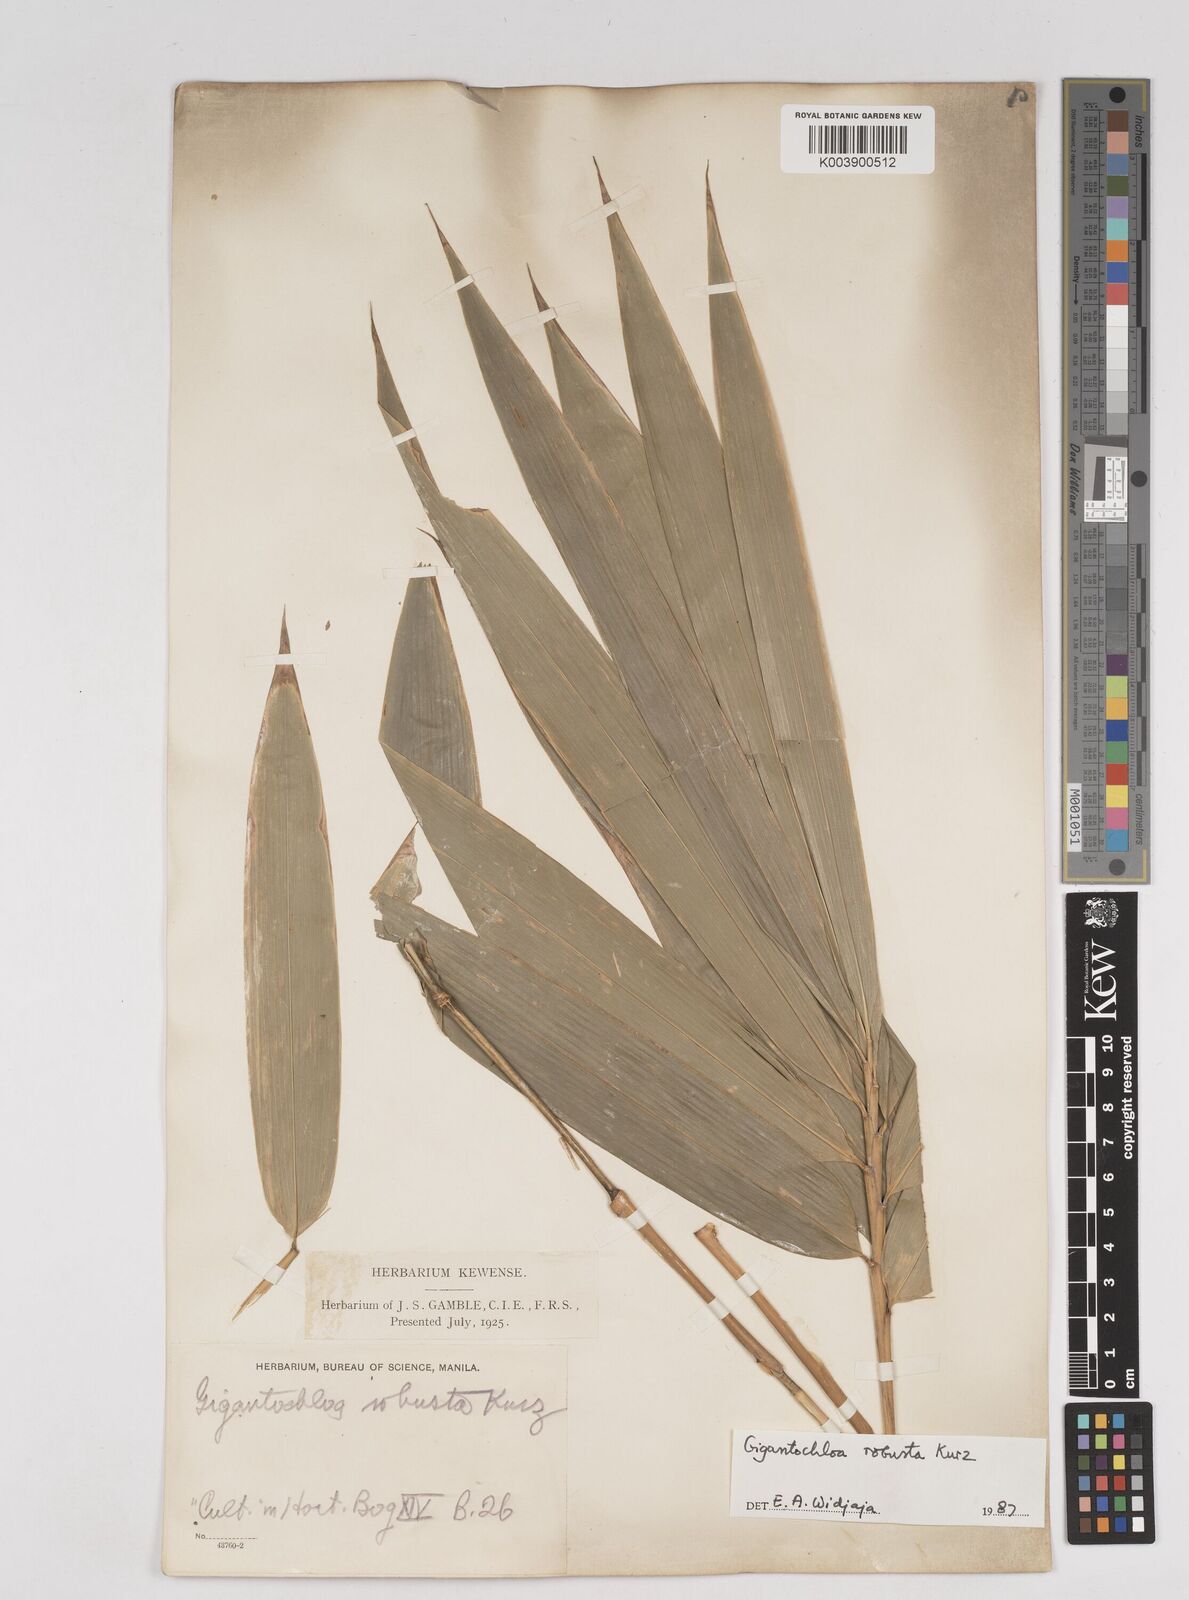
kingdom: Plantae
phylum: Tracheophyta
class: Liliopsida
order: Poales
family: Poaceae
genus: Gigantochloa
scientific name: Gigantochloa robusta
